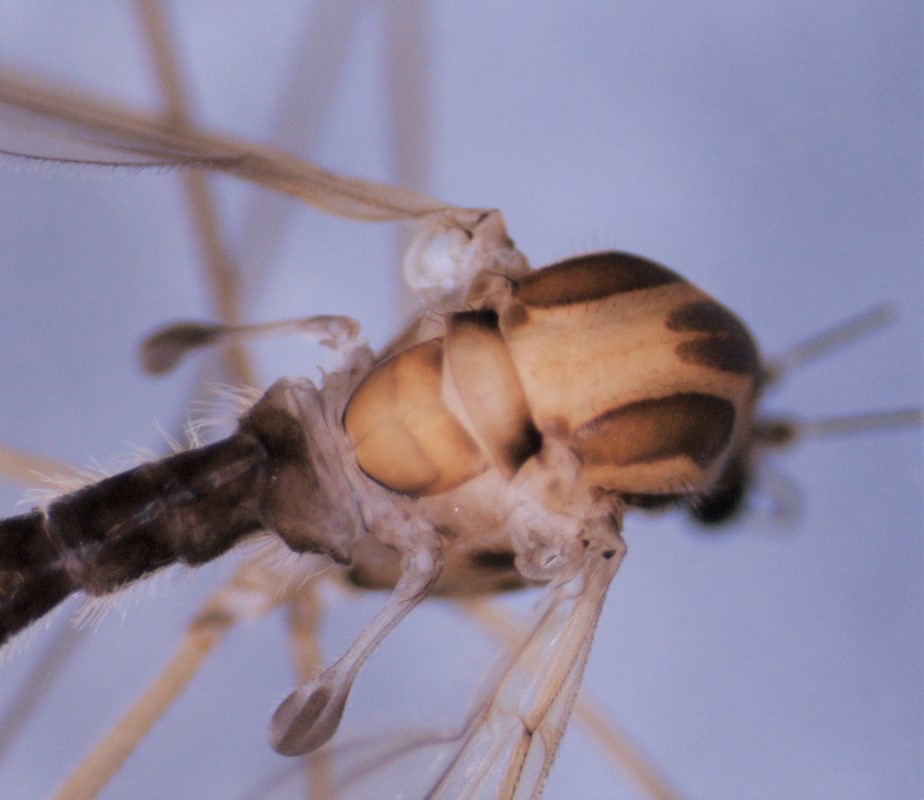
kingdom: Animalia
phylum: Arthropoda
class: Insecta
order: Diptera
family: Dixidae
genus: Dixella
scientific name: Dixella aestivalis
